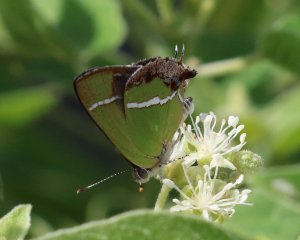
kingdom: Animalia
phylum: Arthropoda
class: Insecta
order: Lepidoptera
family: Lycaenidae
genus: Chlorostrymon
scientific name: Chlorostrymon simaethis
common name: Silver-banded Hairstreak
